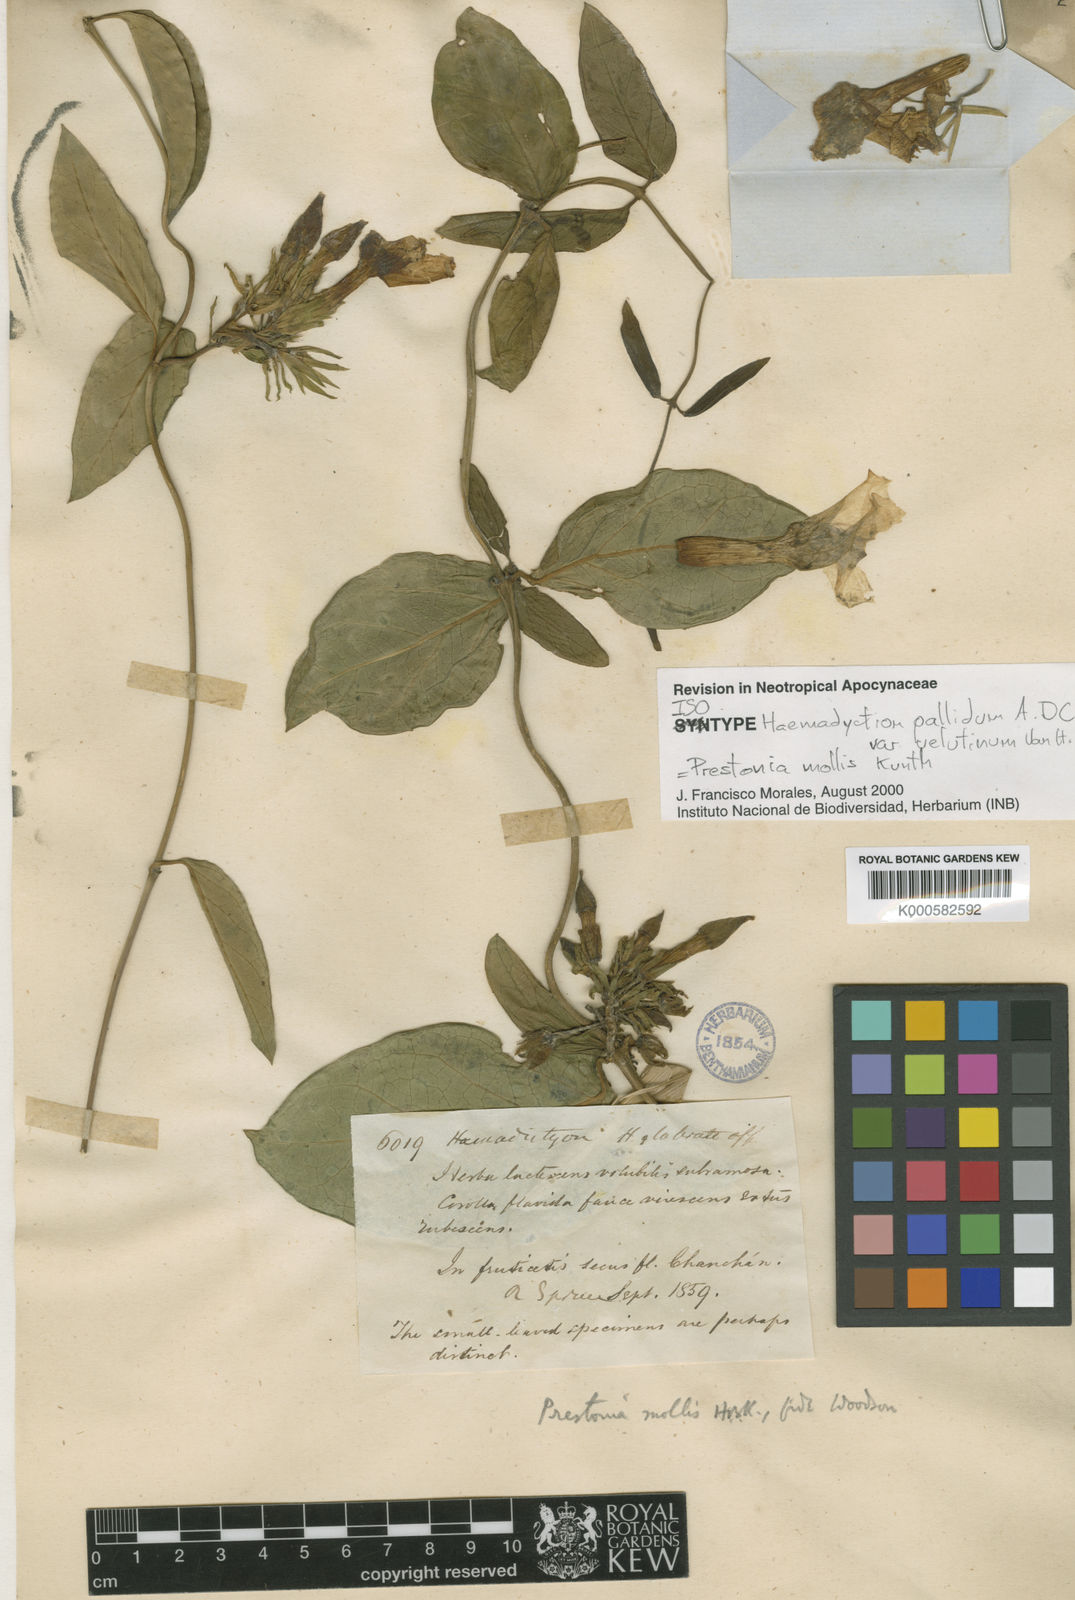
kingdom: Plantae
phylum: Tracheophyta
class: Magnoliopsida
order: Gentianales
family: Apocynaceae
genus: Prestonia
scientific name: Prestonia mollis
